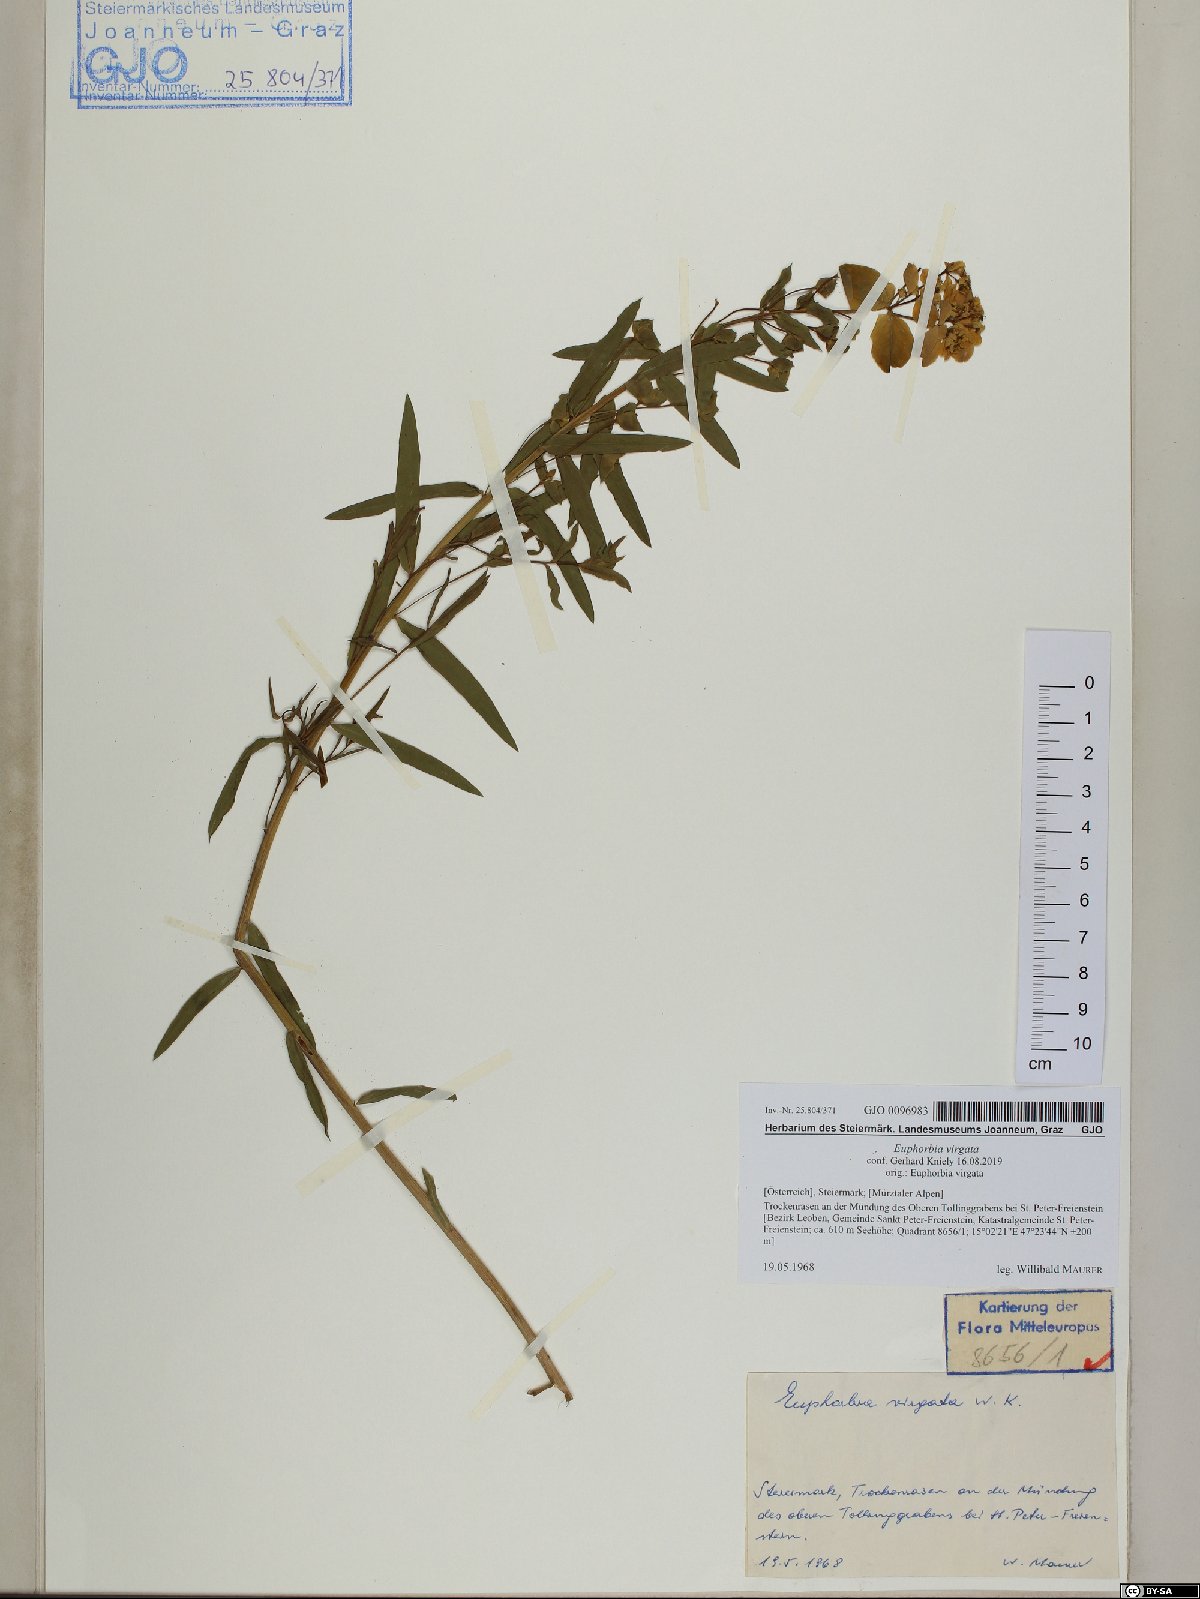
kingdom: Plantae
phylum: Tracheophyta
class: Magnoliopsida
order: Malpighiales
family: Euphorbiaceae
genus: Euphorbia
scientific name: Euphorbia virgata
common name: Leafy spurge
